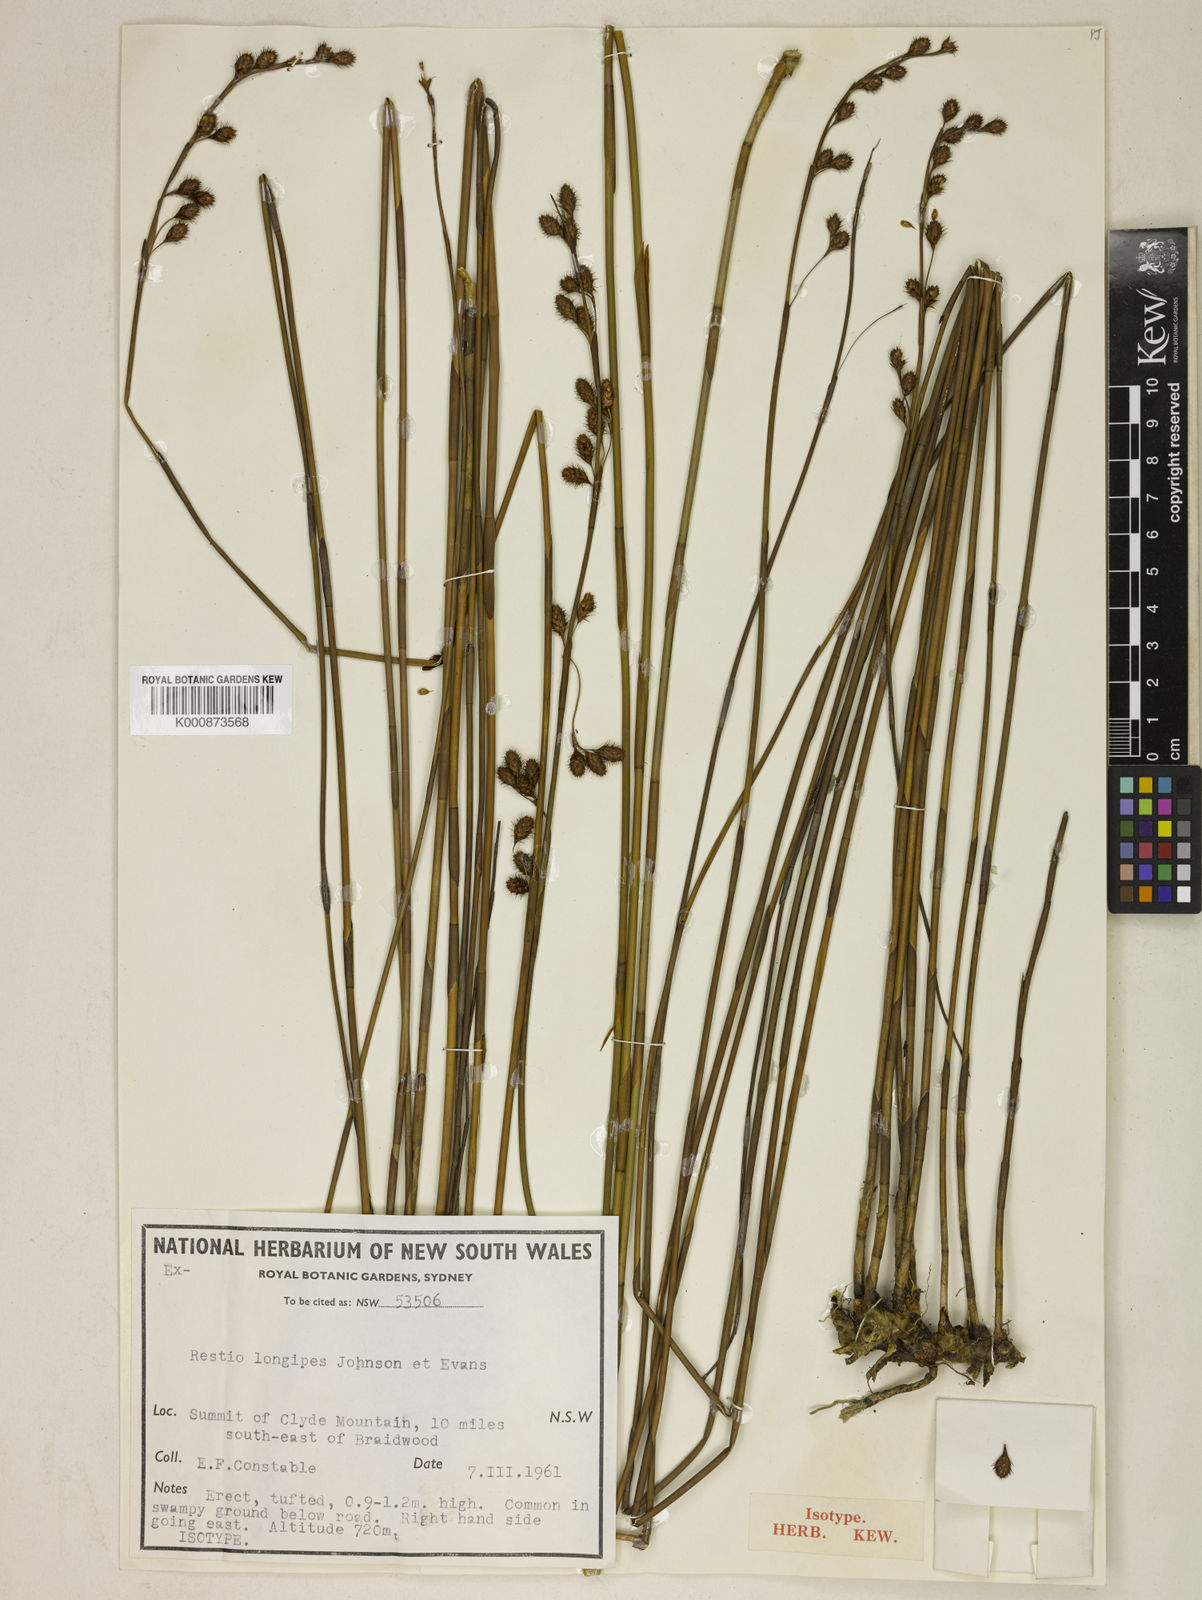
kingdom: Plantae
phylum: Tracheophyta
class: Liliopsida
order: Poales
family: Restionaceae
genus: Baloskion
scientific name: Baloskion longipes
